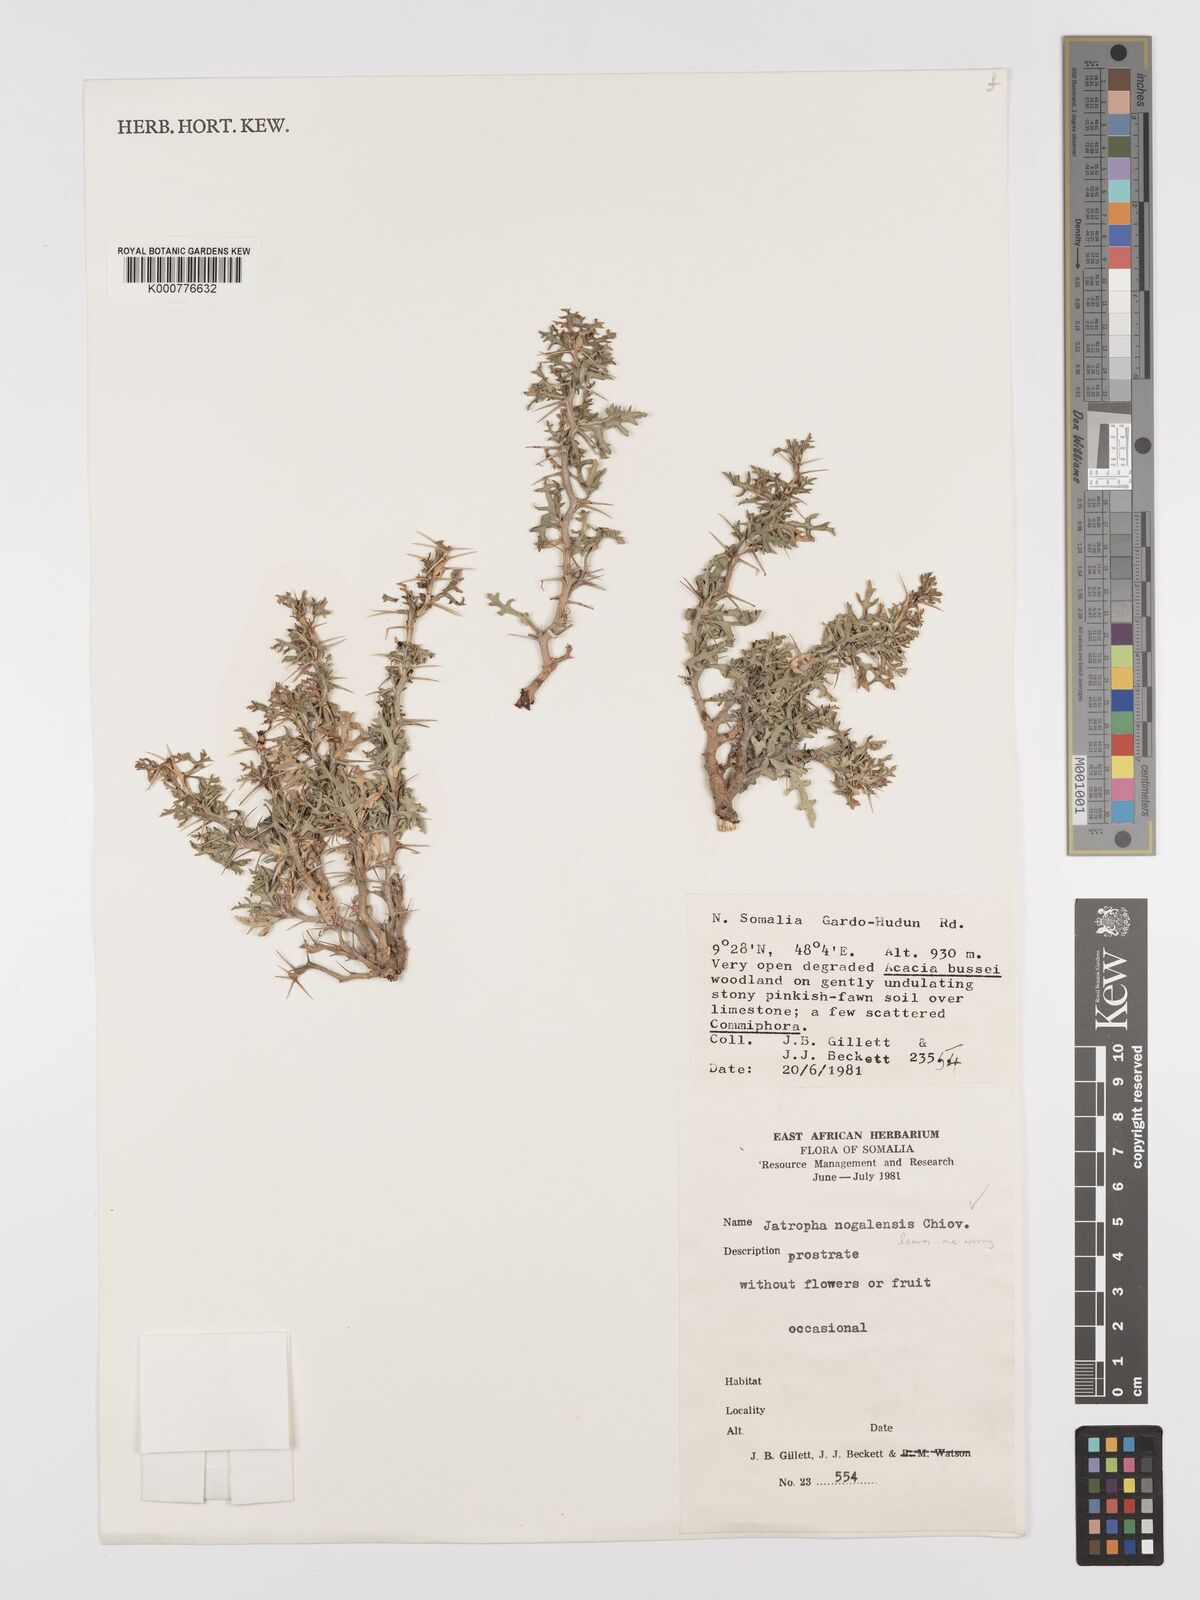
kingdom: Plantae
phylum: Tracheophyta
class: Magnoliopsida
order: Malpighiales
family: Euphorbiaceae
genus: Jatropha
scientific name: Jatropha nogalensis
